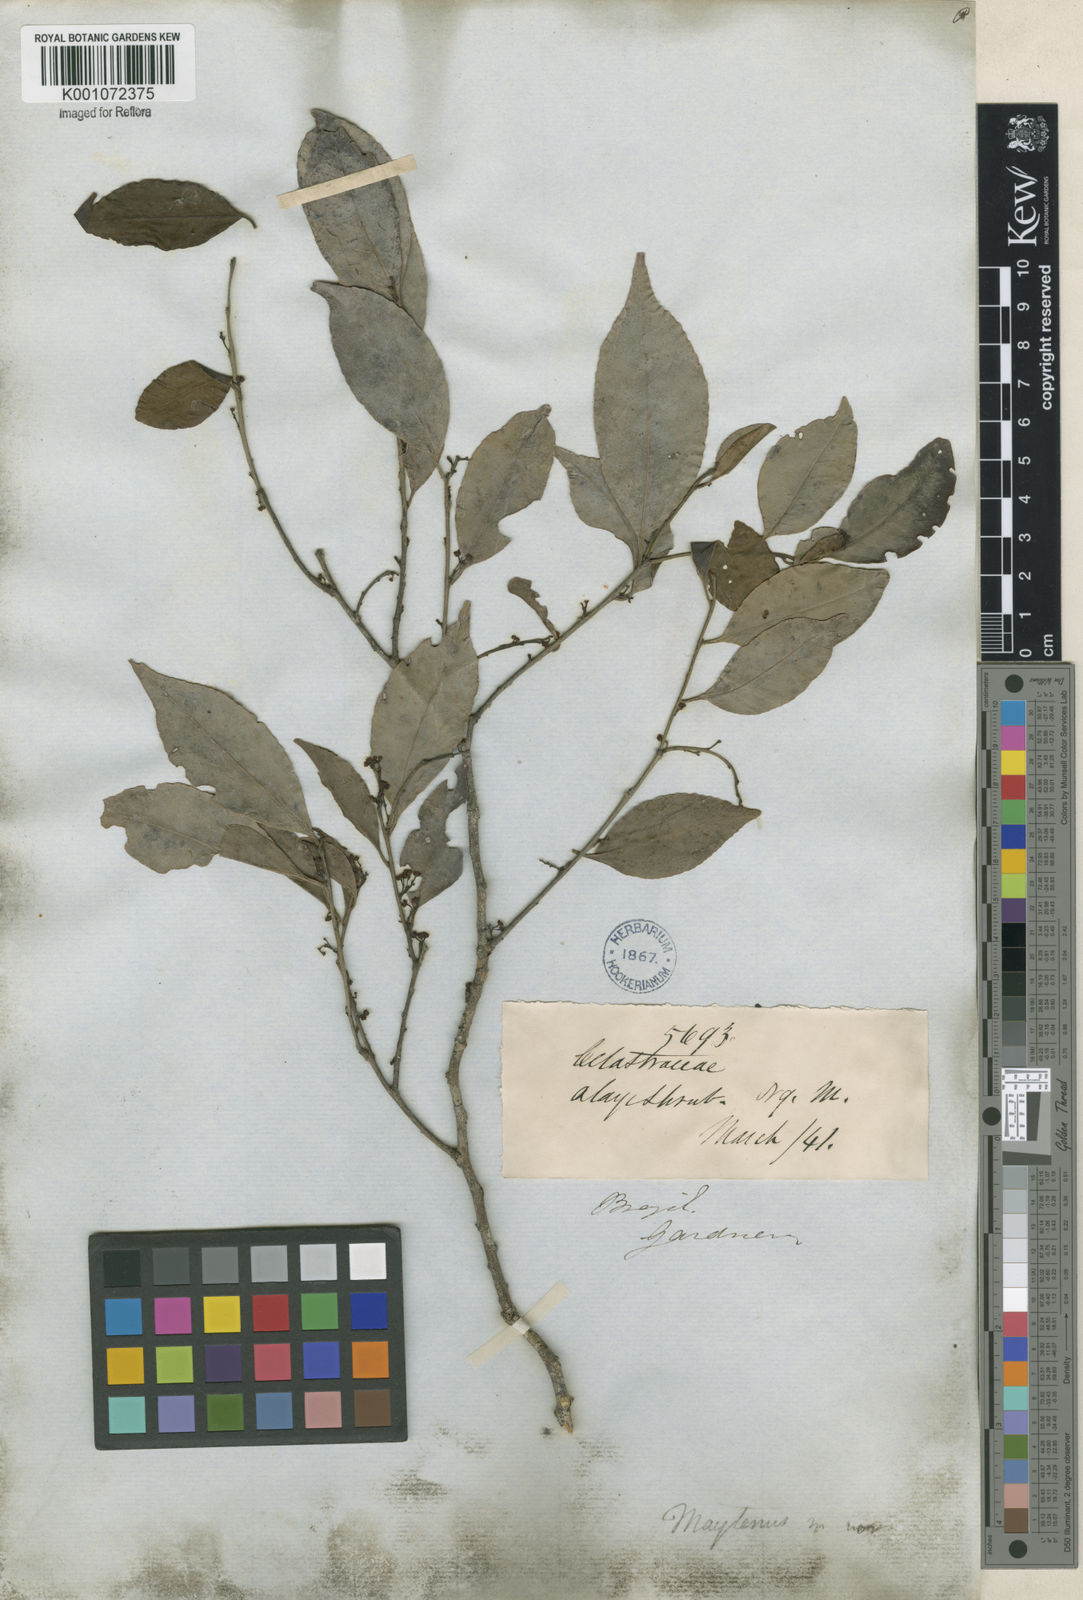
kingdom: Plantae
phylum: Tracheophyta
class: Magnoliopsida
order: Celastrales
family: Celastraceae
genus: Maytenus
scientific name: Maytenus
